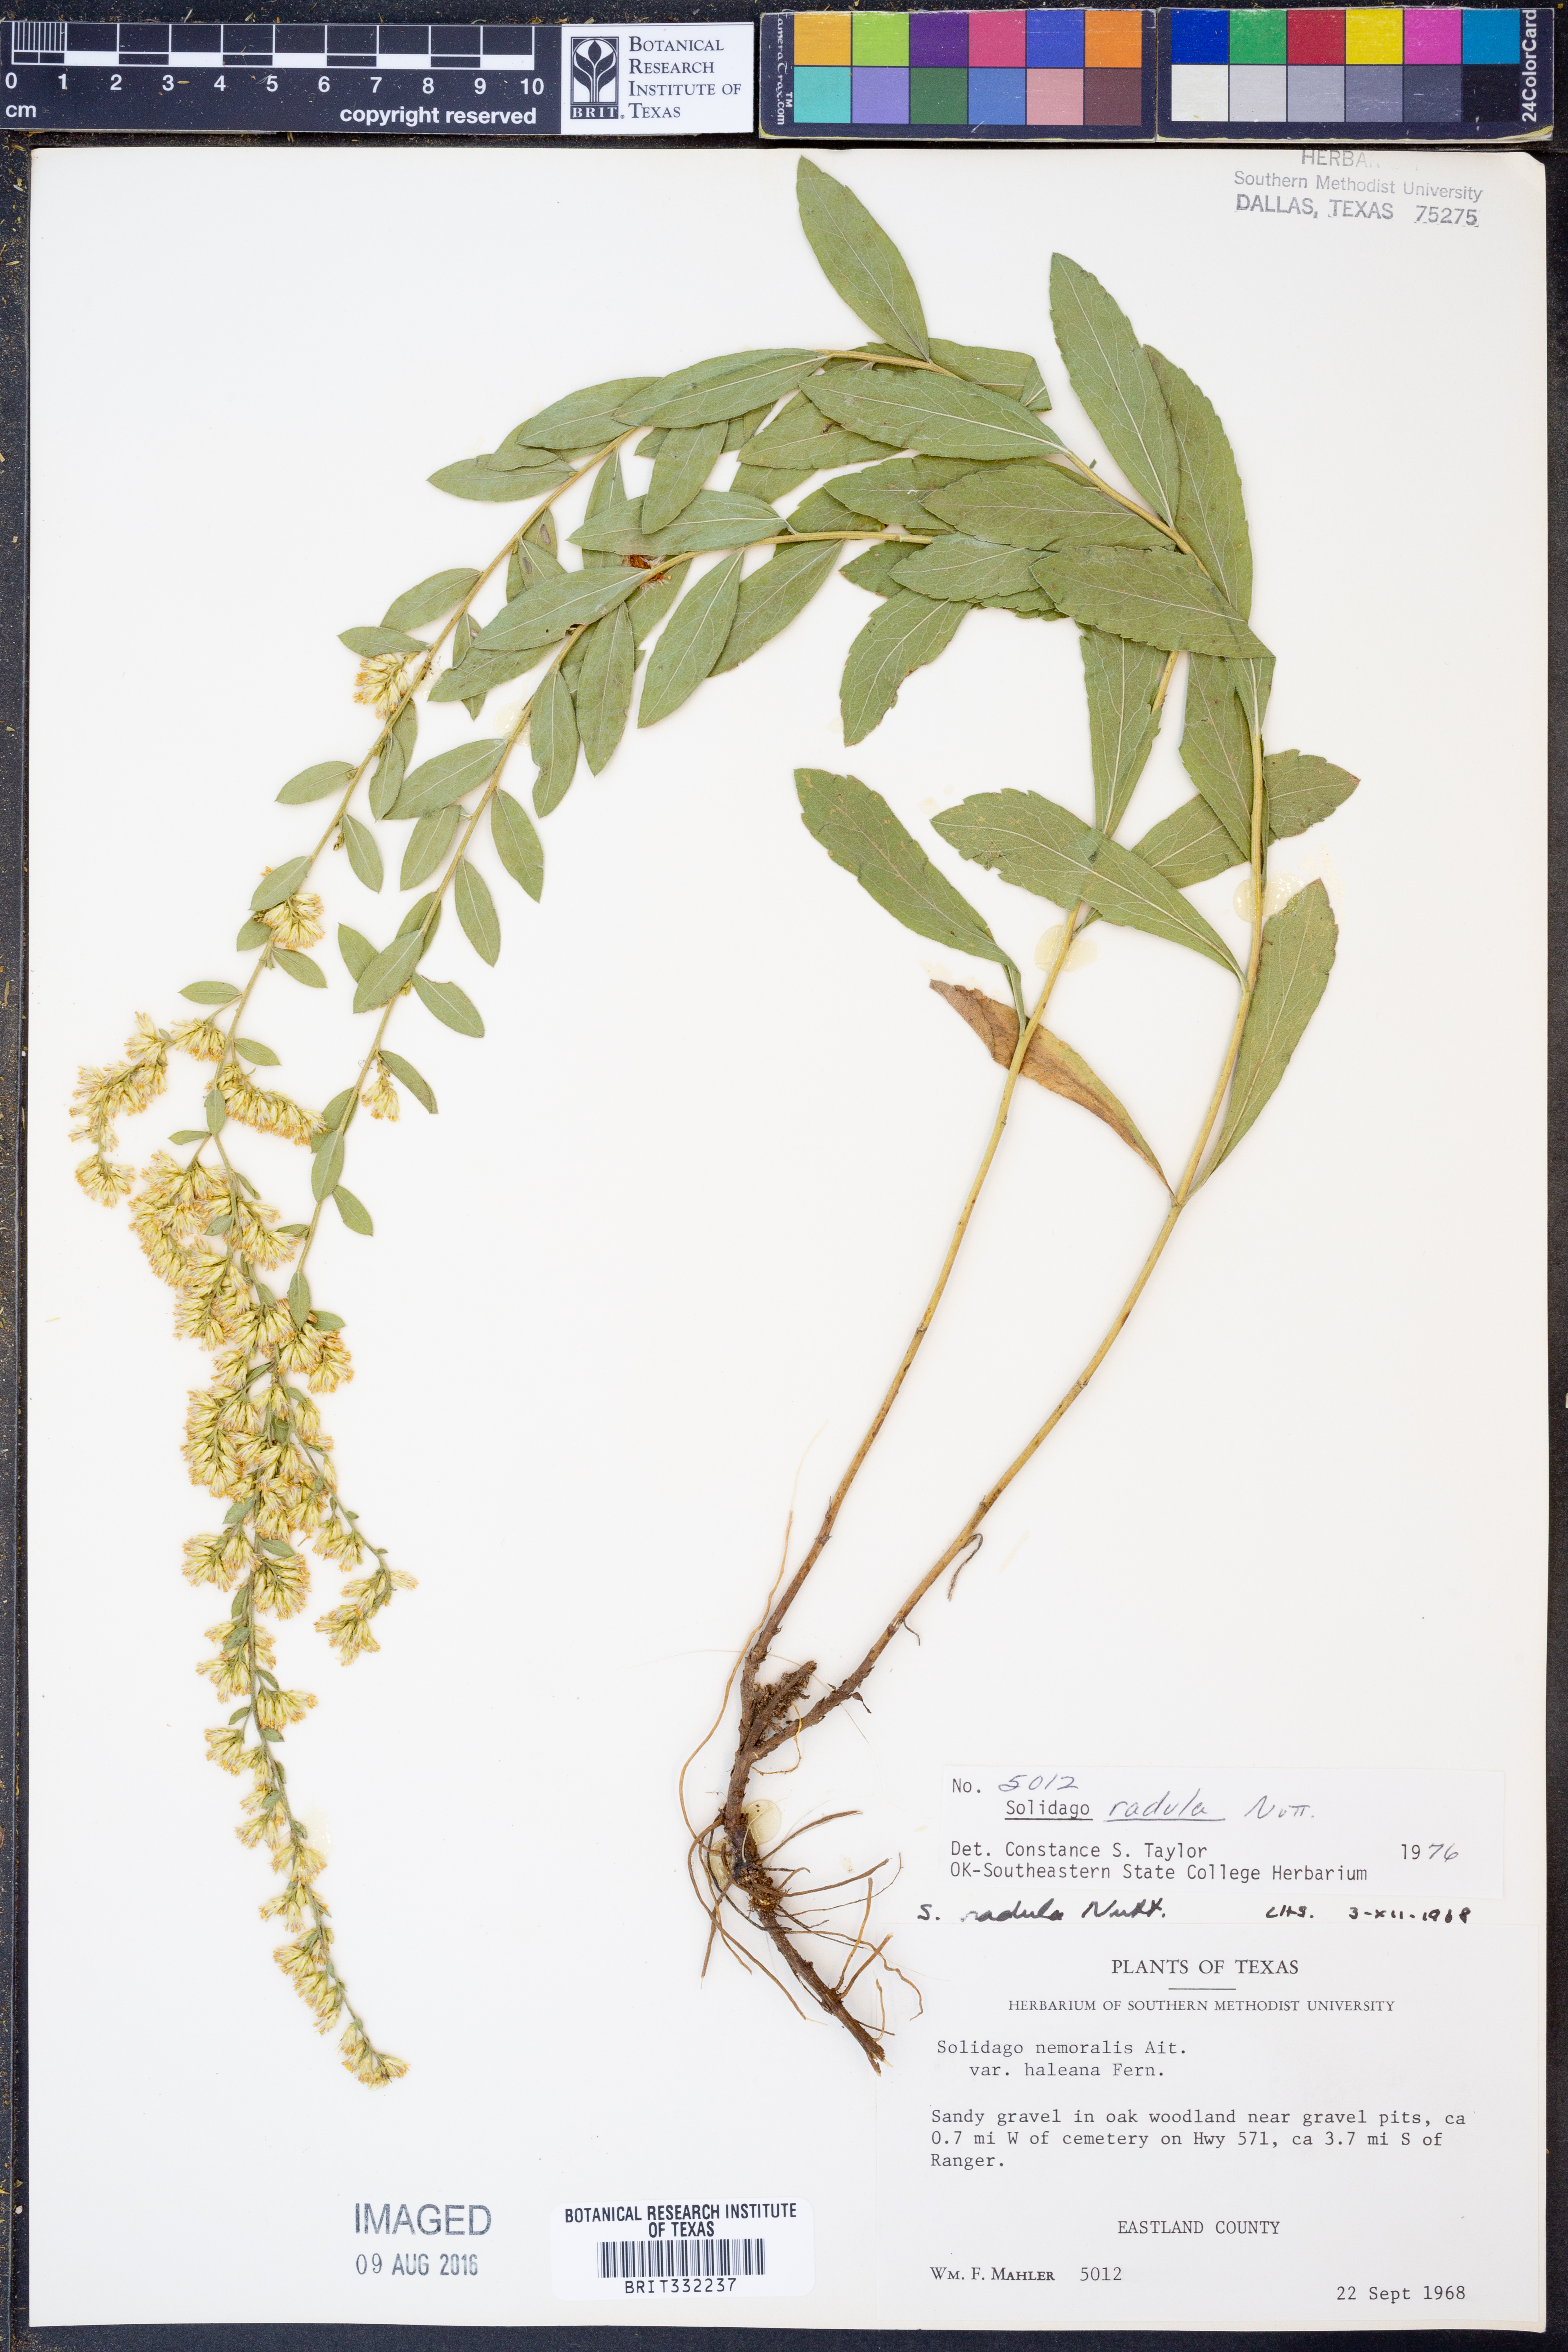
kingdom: Plantae
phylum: Tracheophyta
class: Magnoliopsida
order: Asterales
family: Asteraceae
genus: Solidago
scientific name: Solidago radula
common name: Western rough goldenrod
